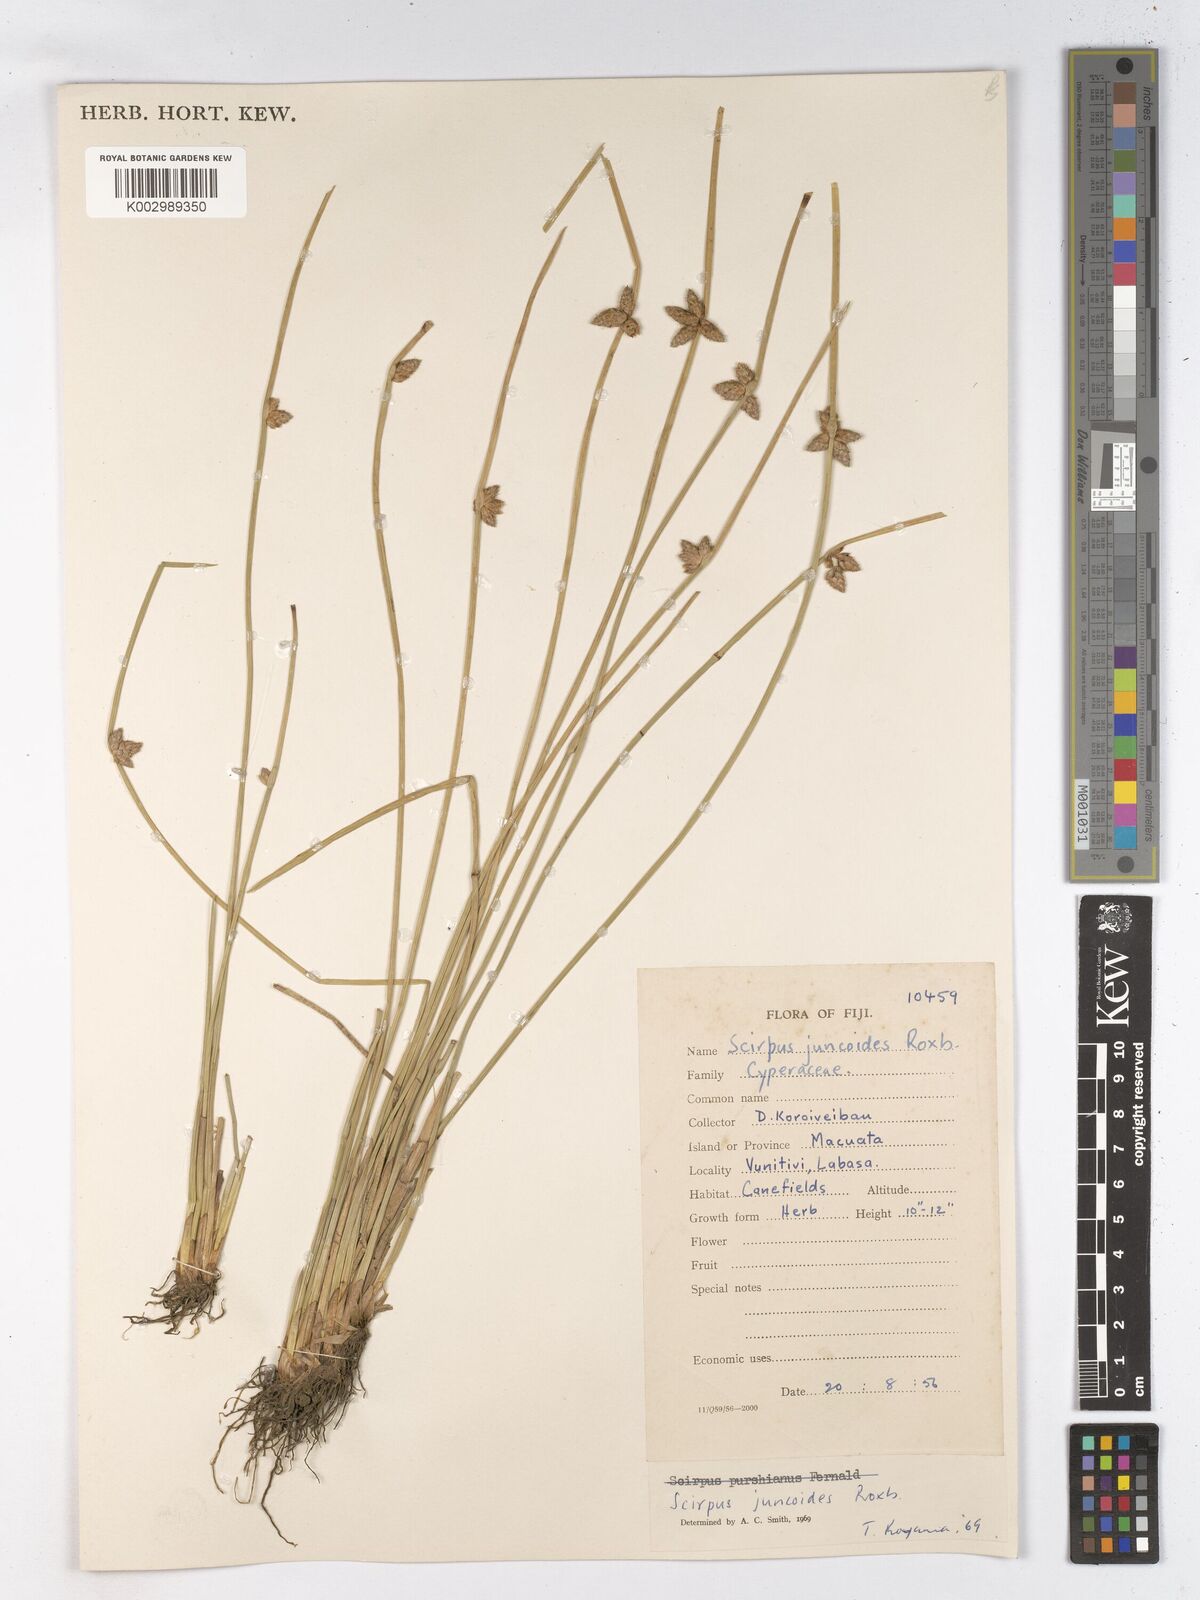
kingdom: Plantae
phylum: Tracheophyta
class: Liliopsida
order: Poales
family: Cyperaceae
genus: Schoenoplectiella
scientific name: Schoenoplectiella juncoides
